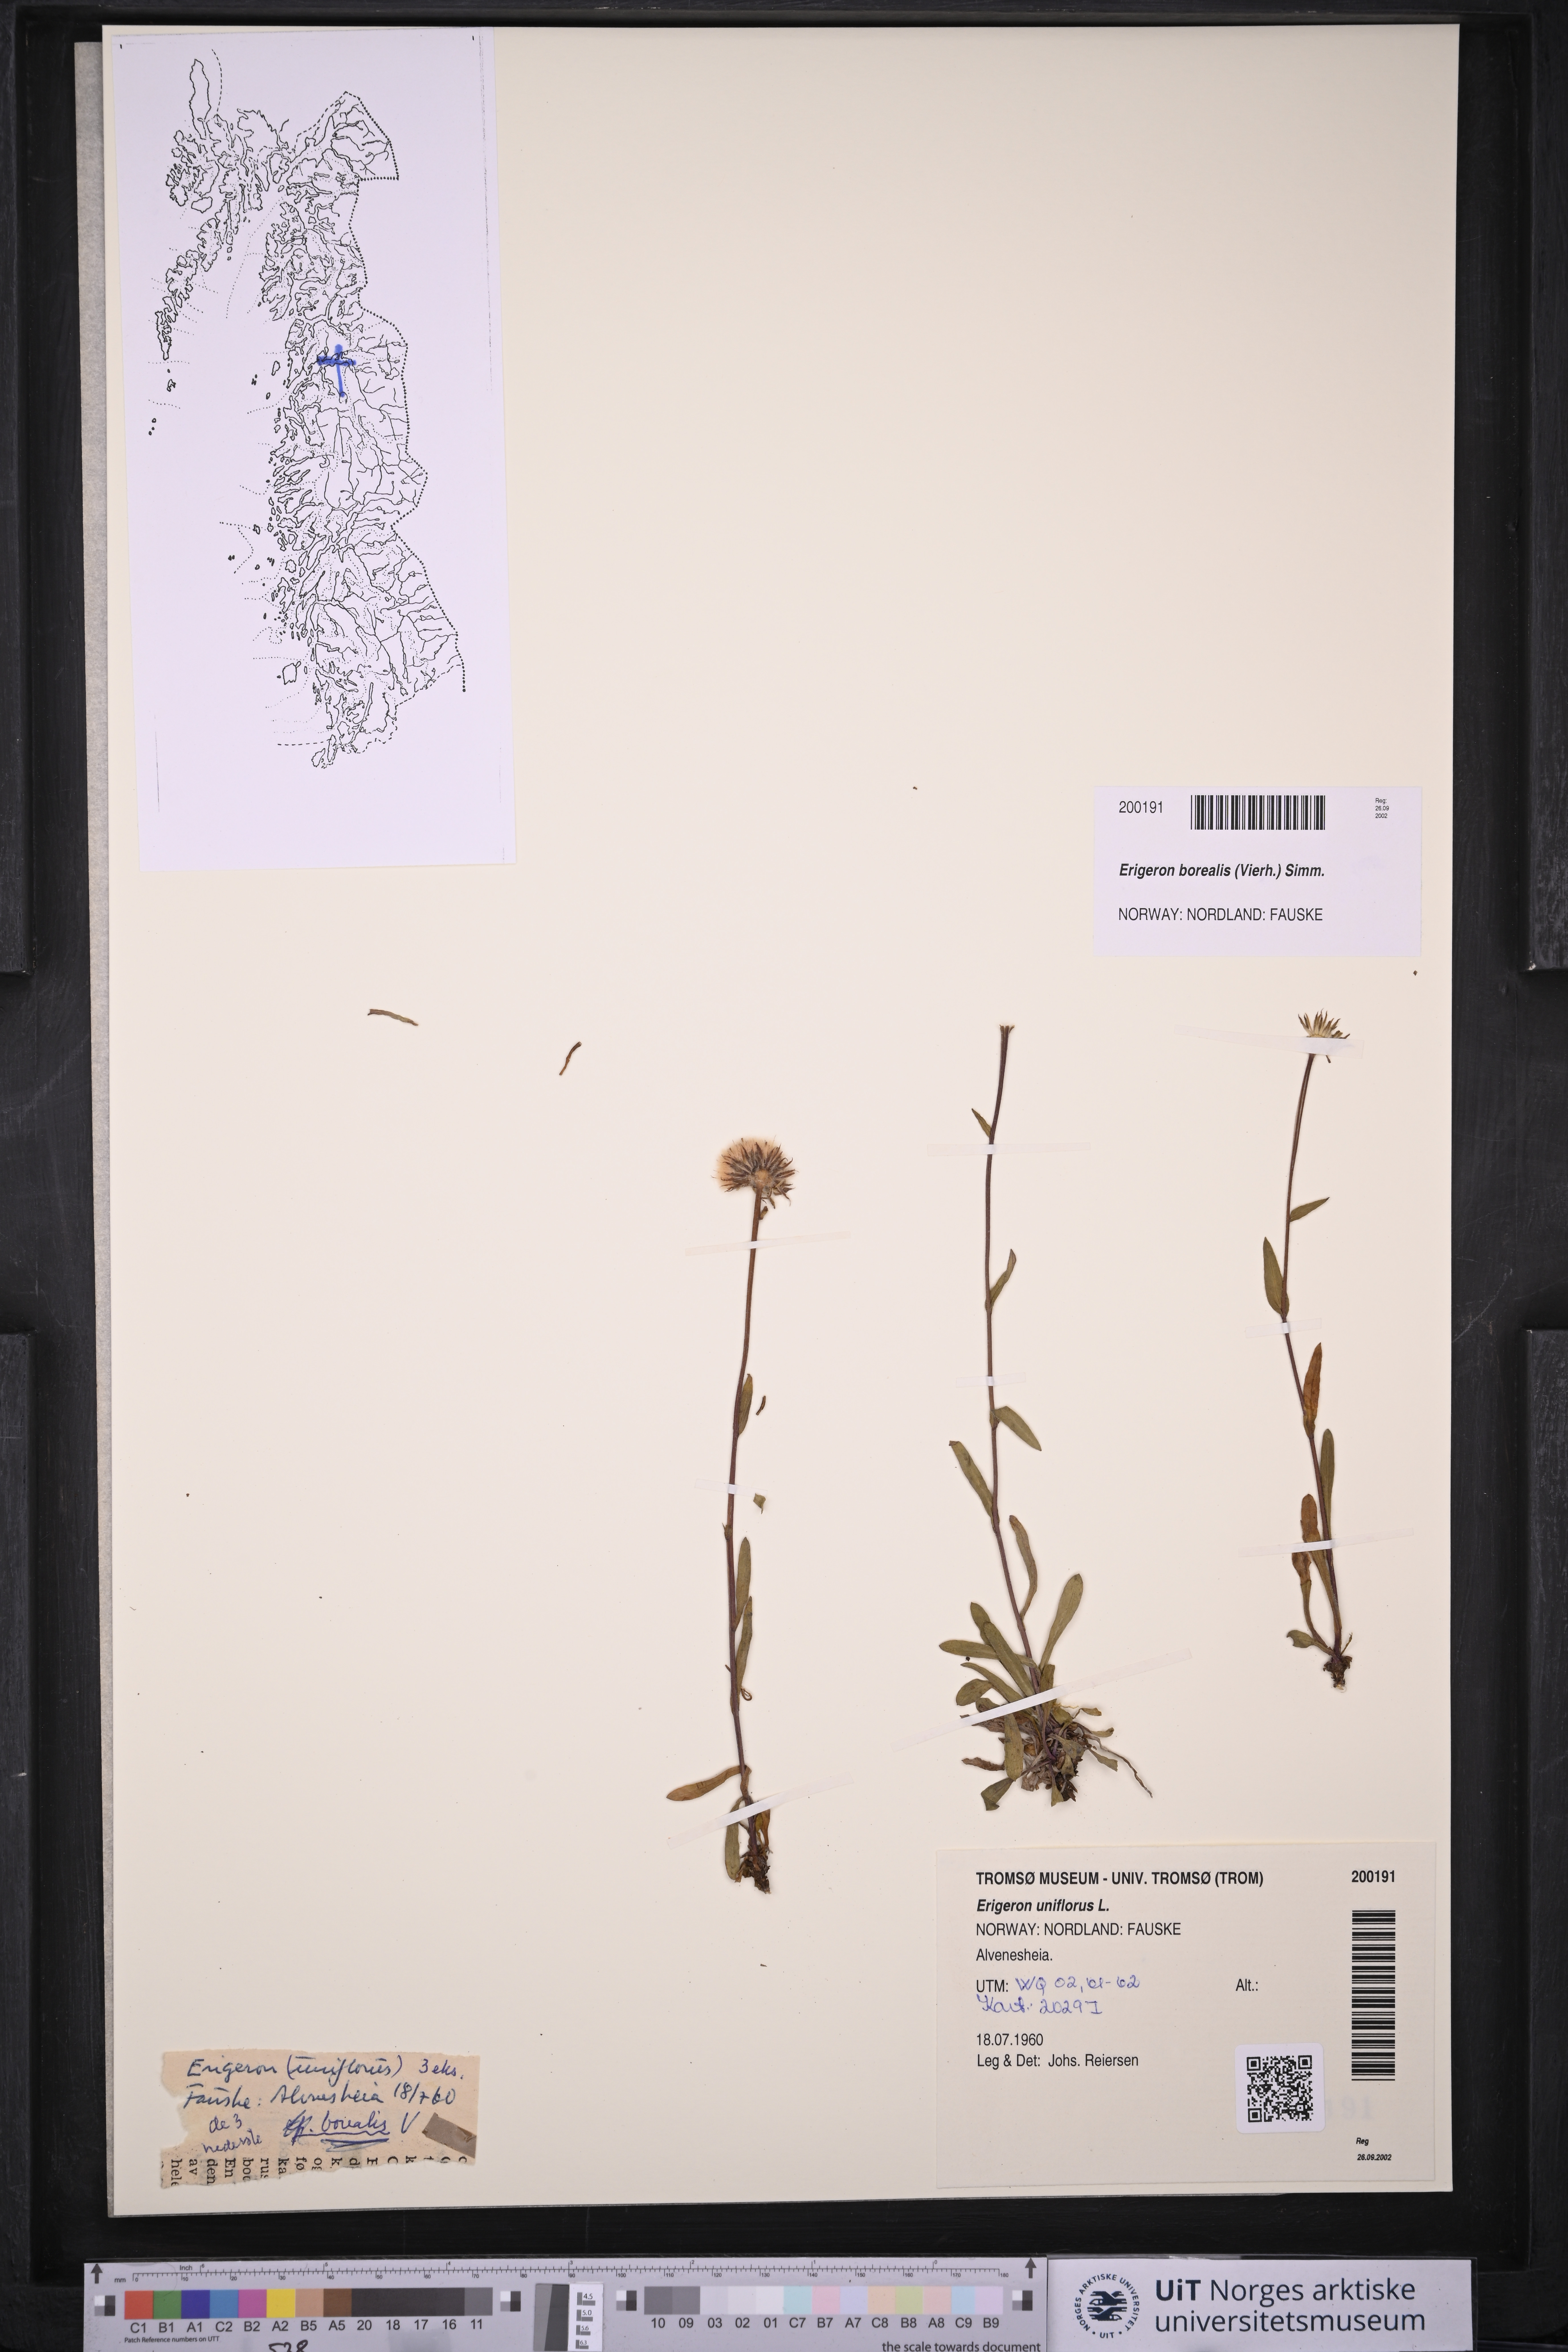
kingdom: Plantae
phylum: Tracheophyta
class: Magnoliopsida
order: Asterales
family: Asteraceae
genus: Erigeron
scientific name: Erigeron borealis
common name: Alpine fleabane
